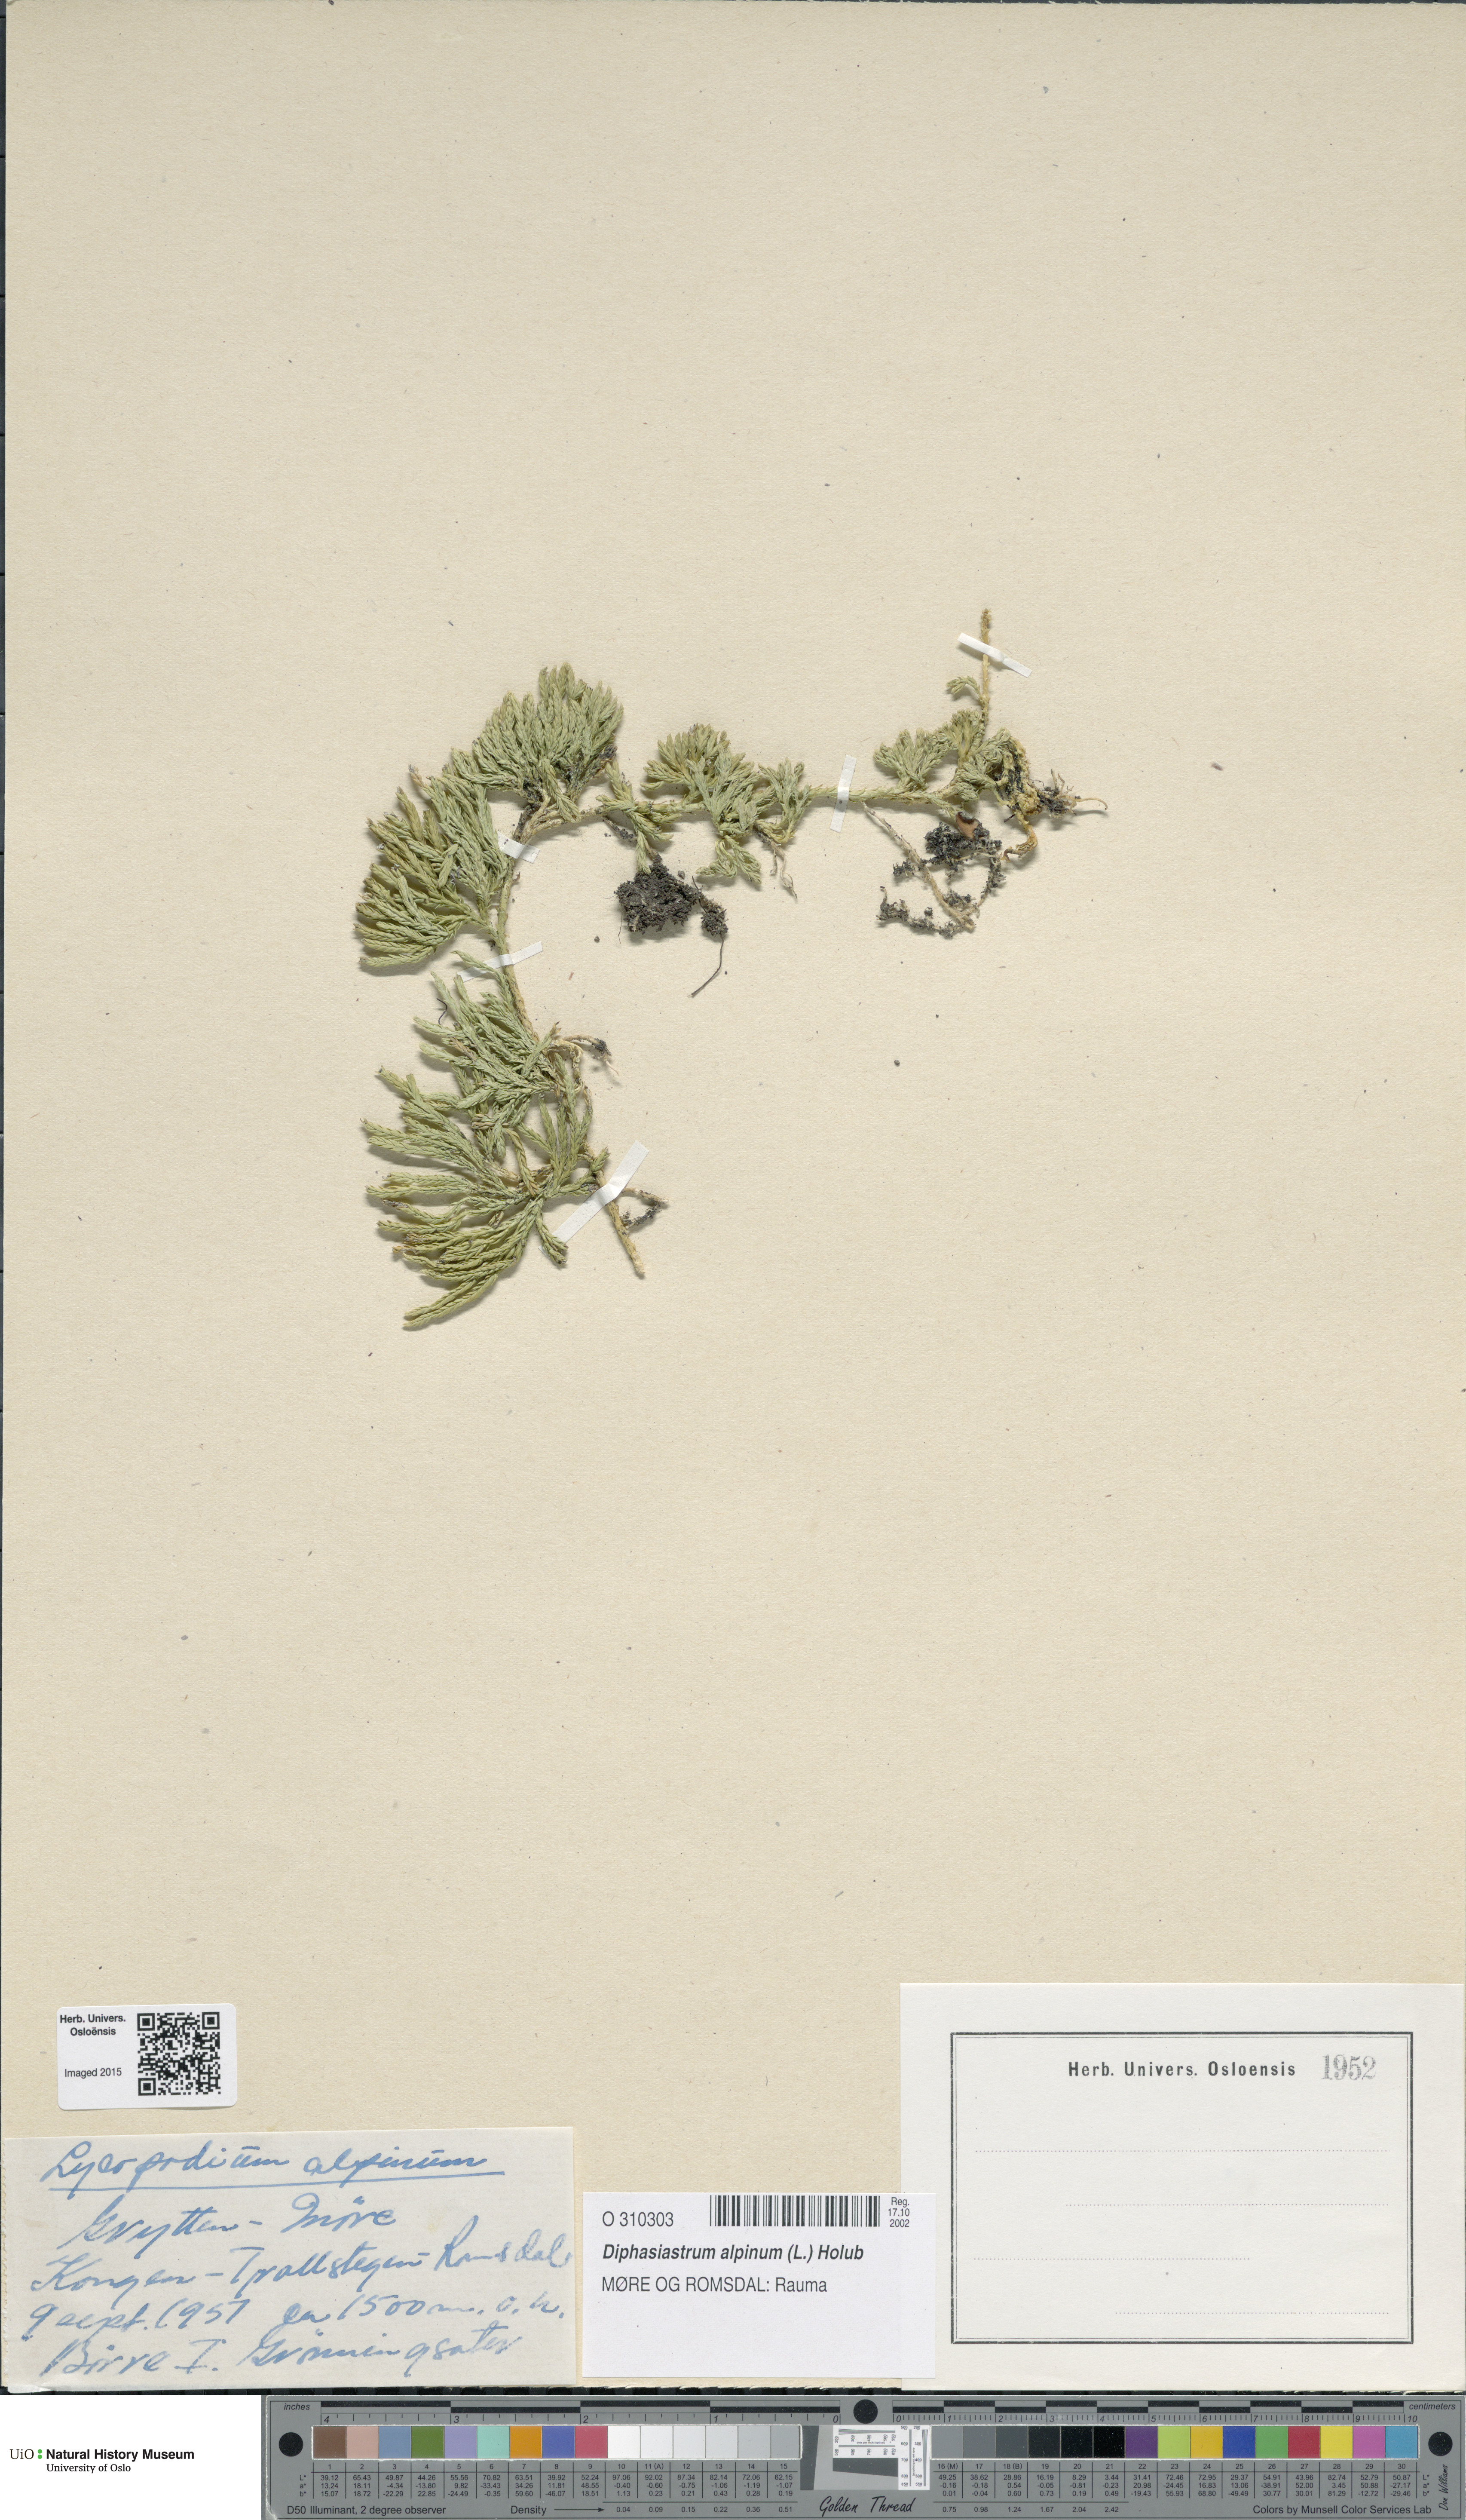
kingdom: Plantae
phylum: Tracheophyta
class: Lycopodiopsida
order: Lycopodiales
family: Lycopodiaceae
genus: Diphasiastrum
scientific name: Diphasiastrum alpinum
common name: Alpine clubmoss
